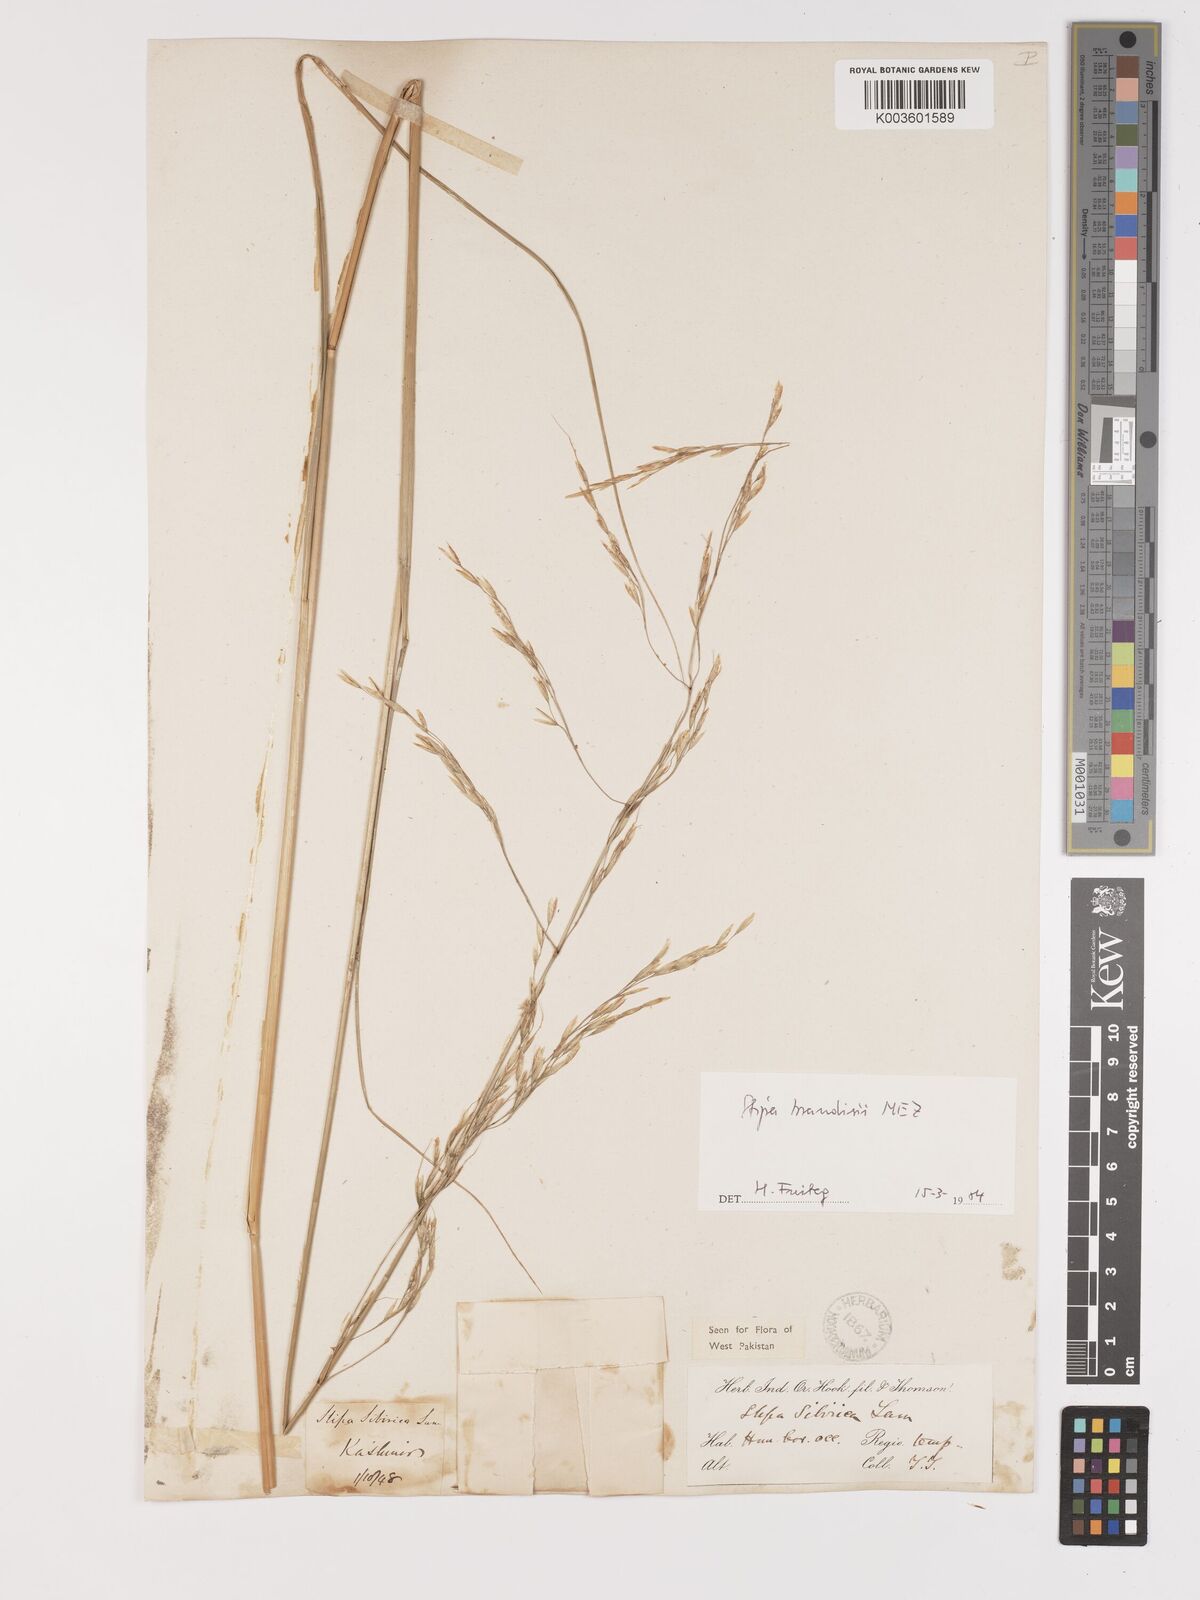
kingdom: Plantae
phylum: Tracheophyta
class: Liliopsida
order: Poales
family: Poaceae
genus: Achnatherum
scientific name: Achnatherum brandisii
